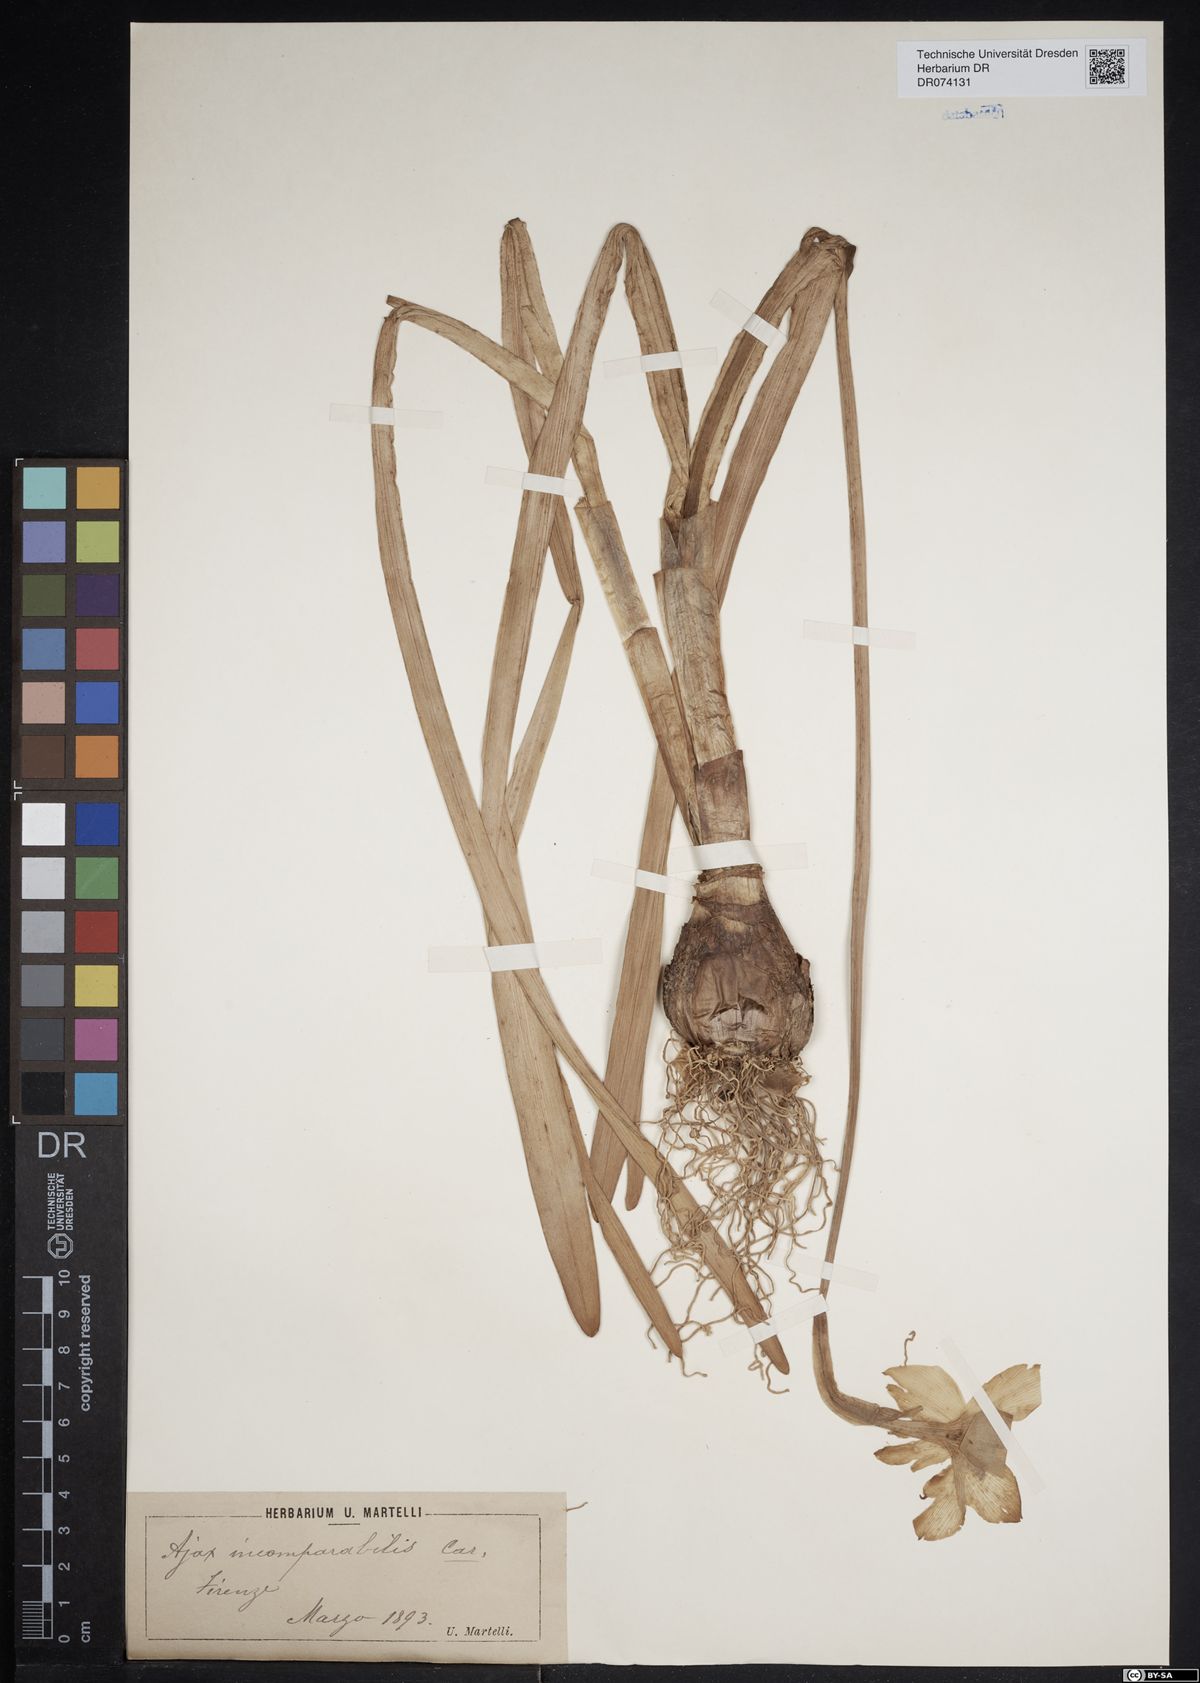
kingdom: Plantae
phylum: Tracheophyta
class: Liliopsida
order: Asparagales
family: Amaryllidaceae
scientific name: Amaryllidaceae
